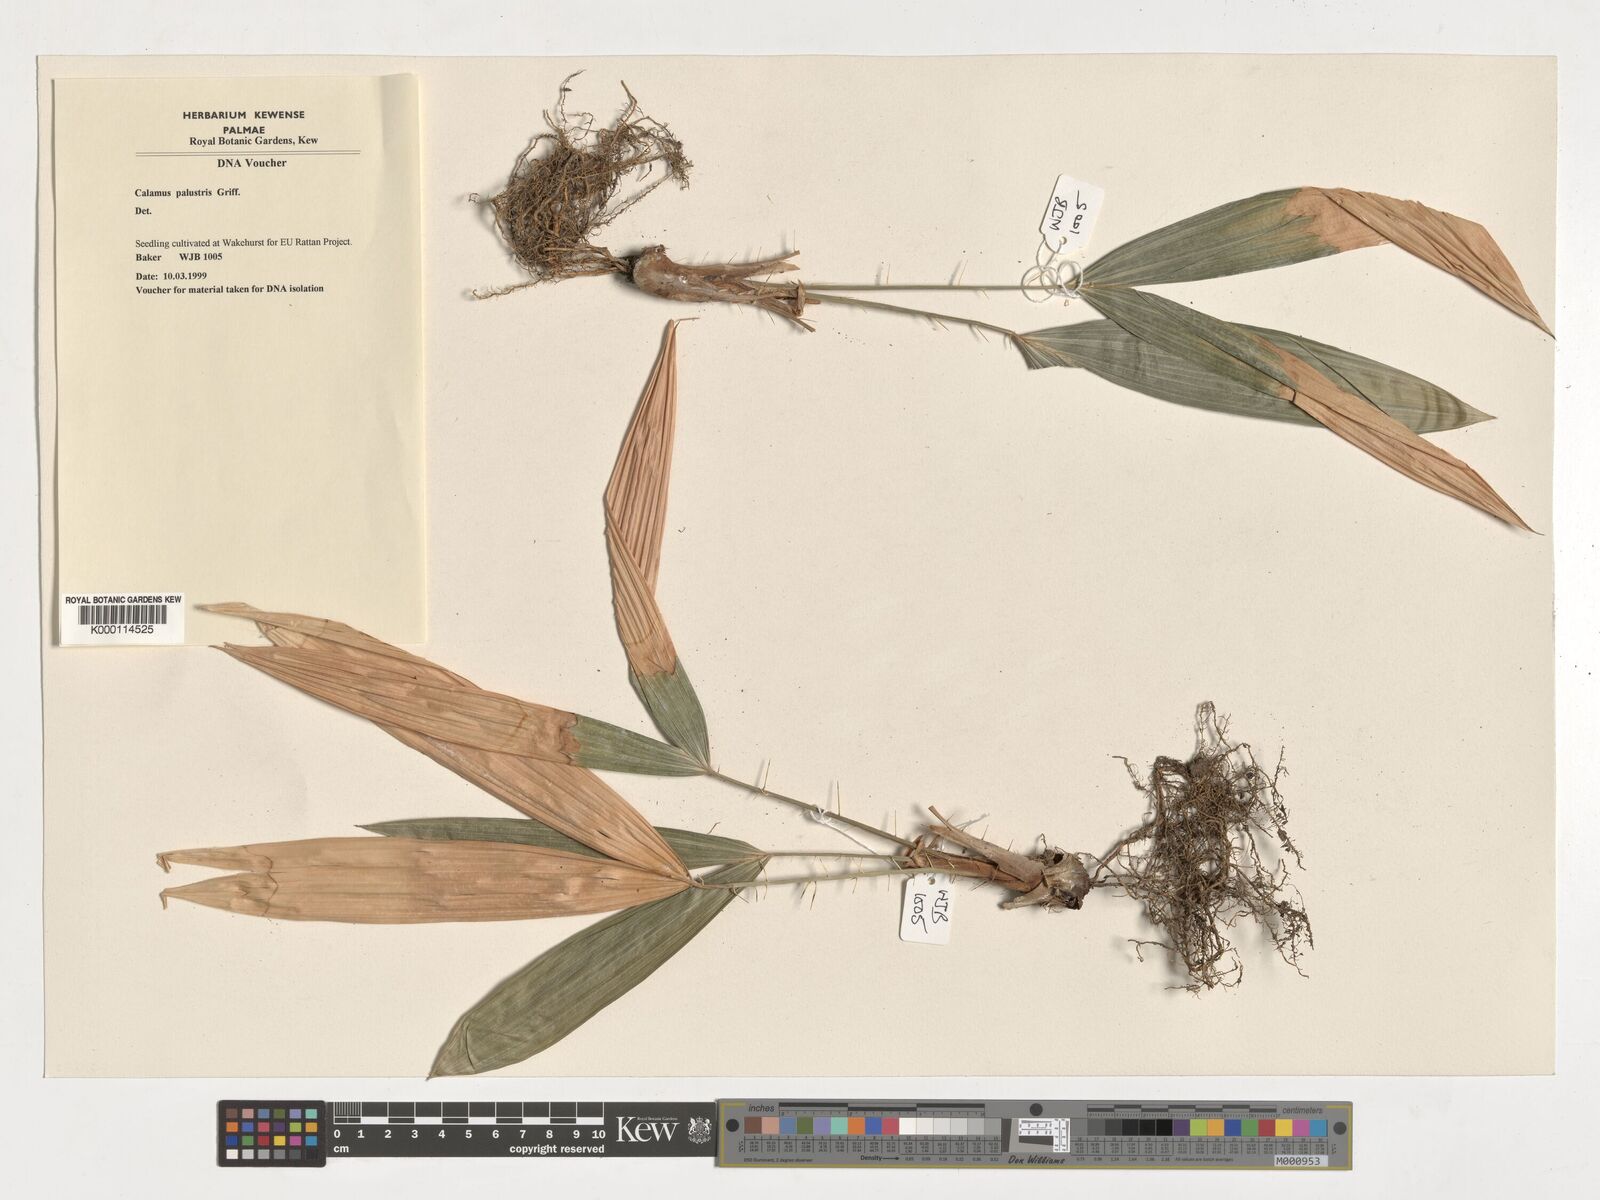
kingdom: Plantae
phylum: Tracheophyta
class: Liliopsida
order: Arecales
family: Arecaceae
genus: Calamus
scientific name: Calamus latifolius
